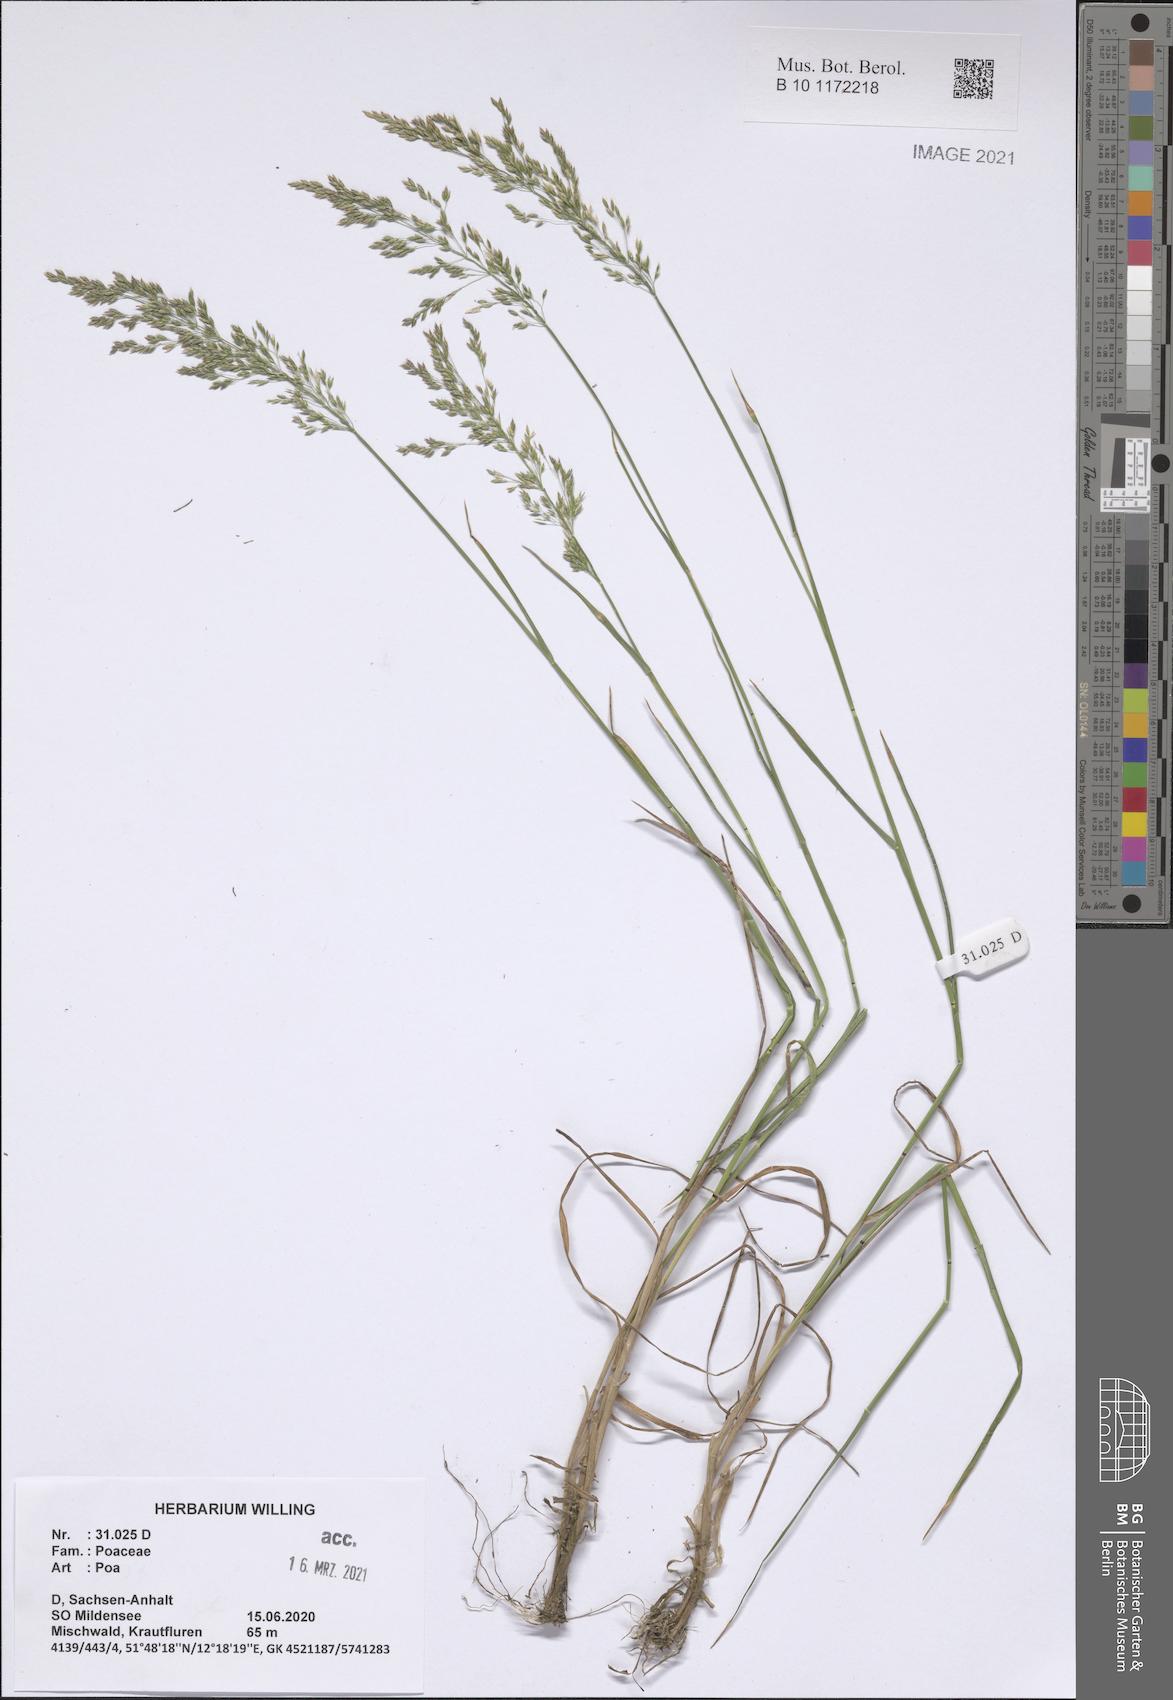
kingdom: Plantae
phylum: Tracheophyta
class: Liliopsida
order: Poales
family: Poaceae
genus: Poa
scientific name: Poa
